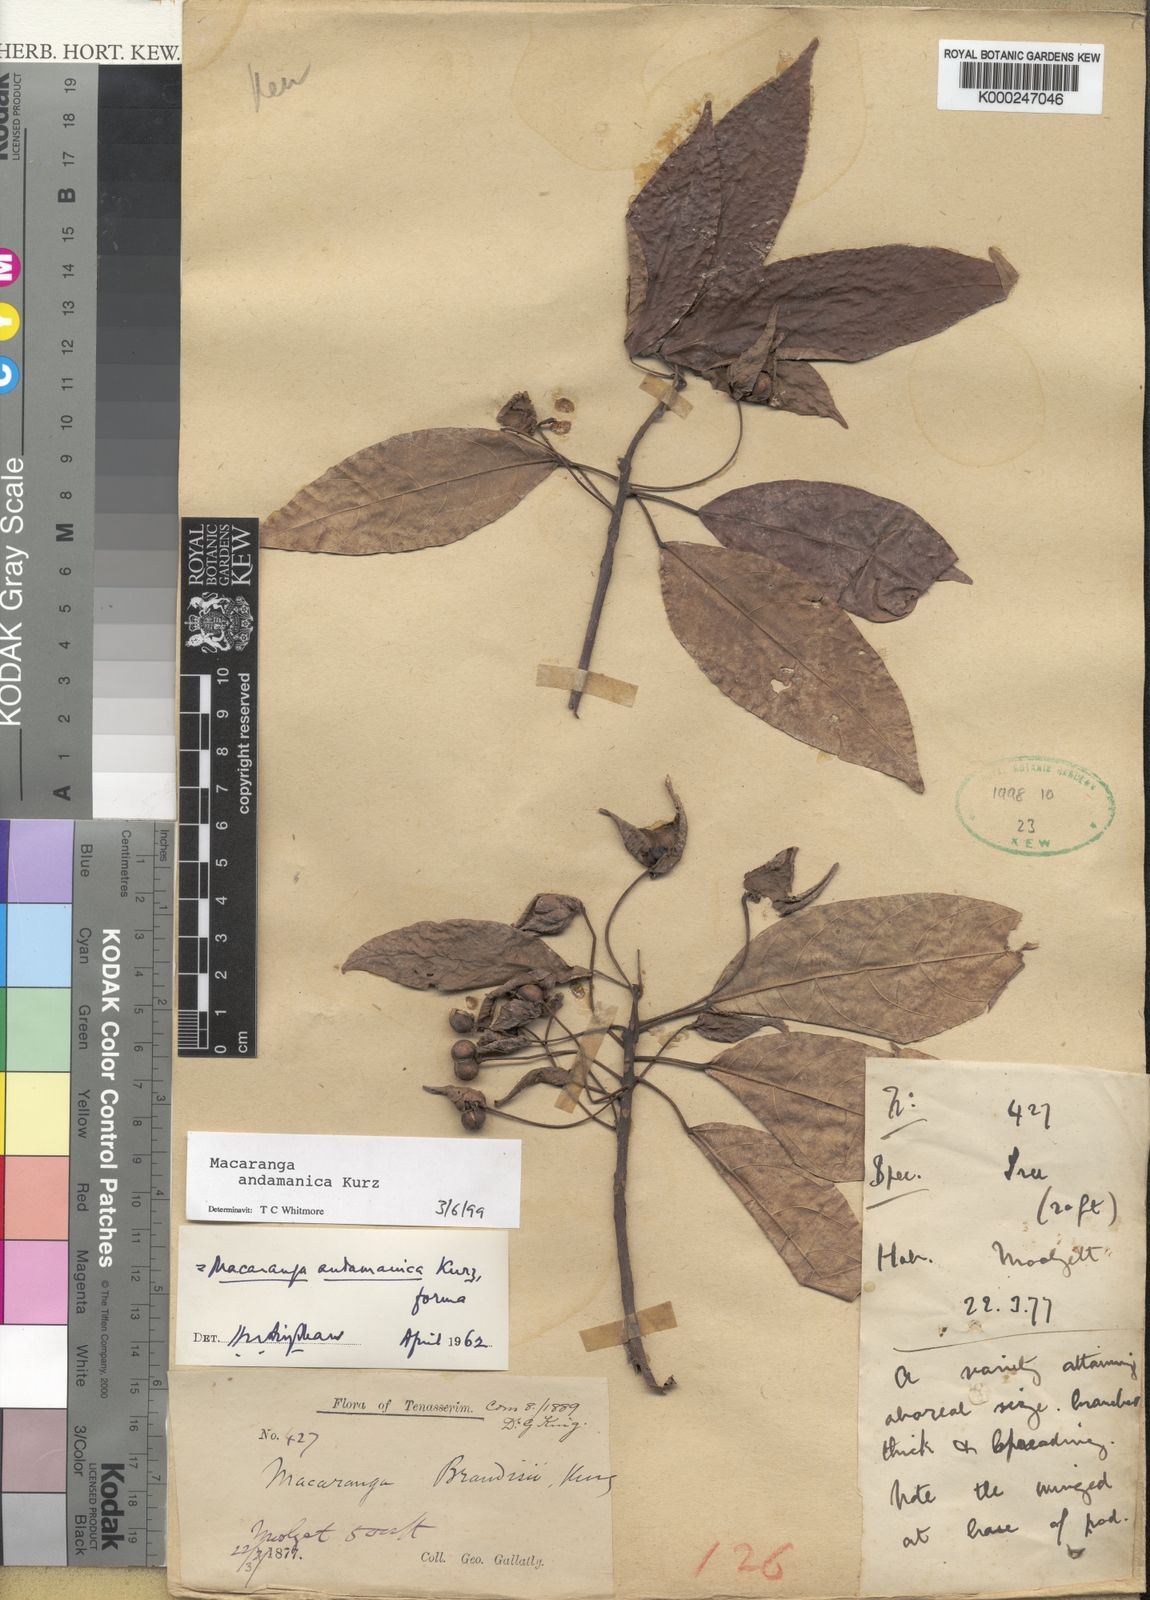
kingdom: Plantae
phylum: Tracheophyta
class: Magnoliopsida
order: Malpighiales
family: Euphorbiaceae
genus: Macaranga
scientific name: Macaranga andamanica
